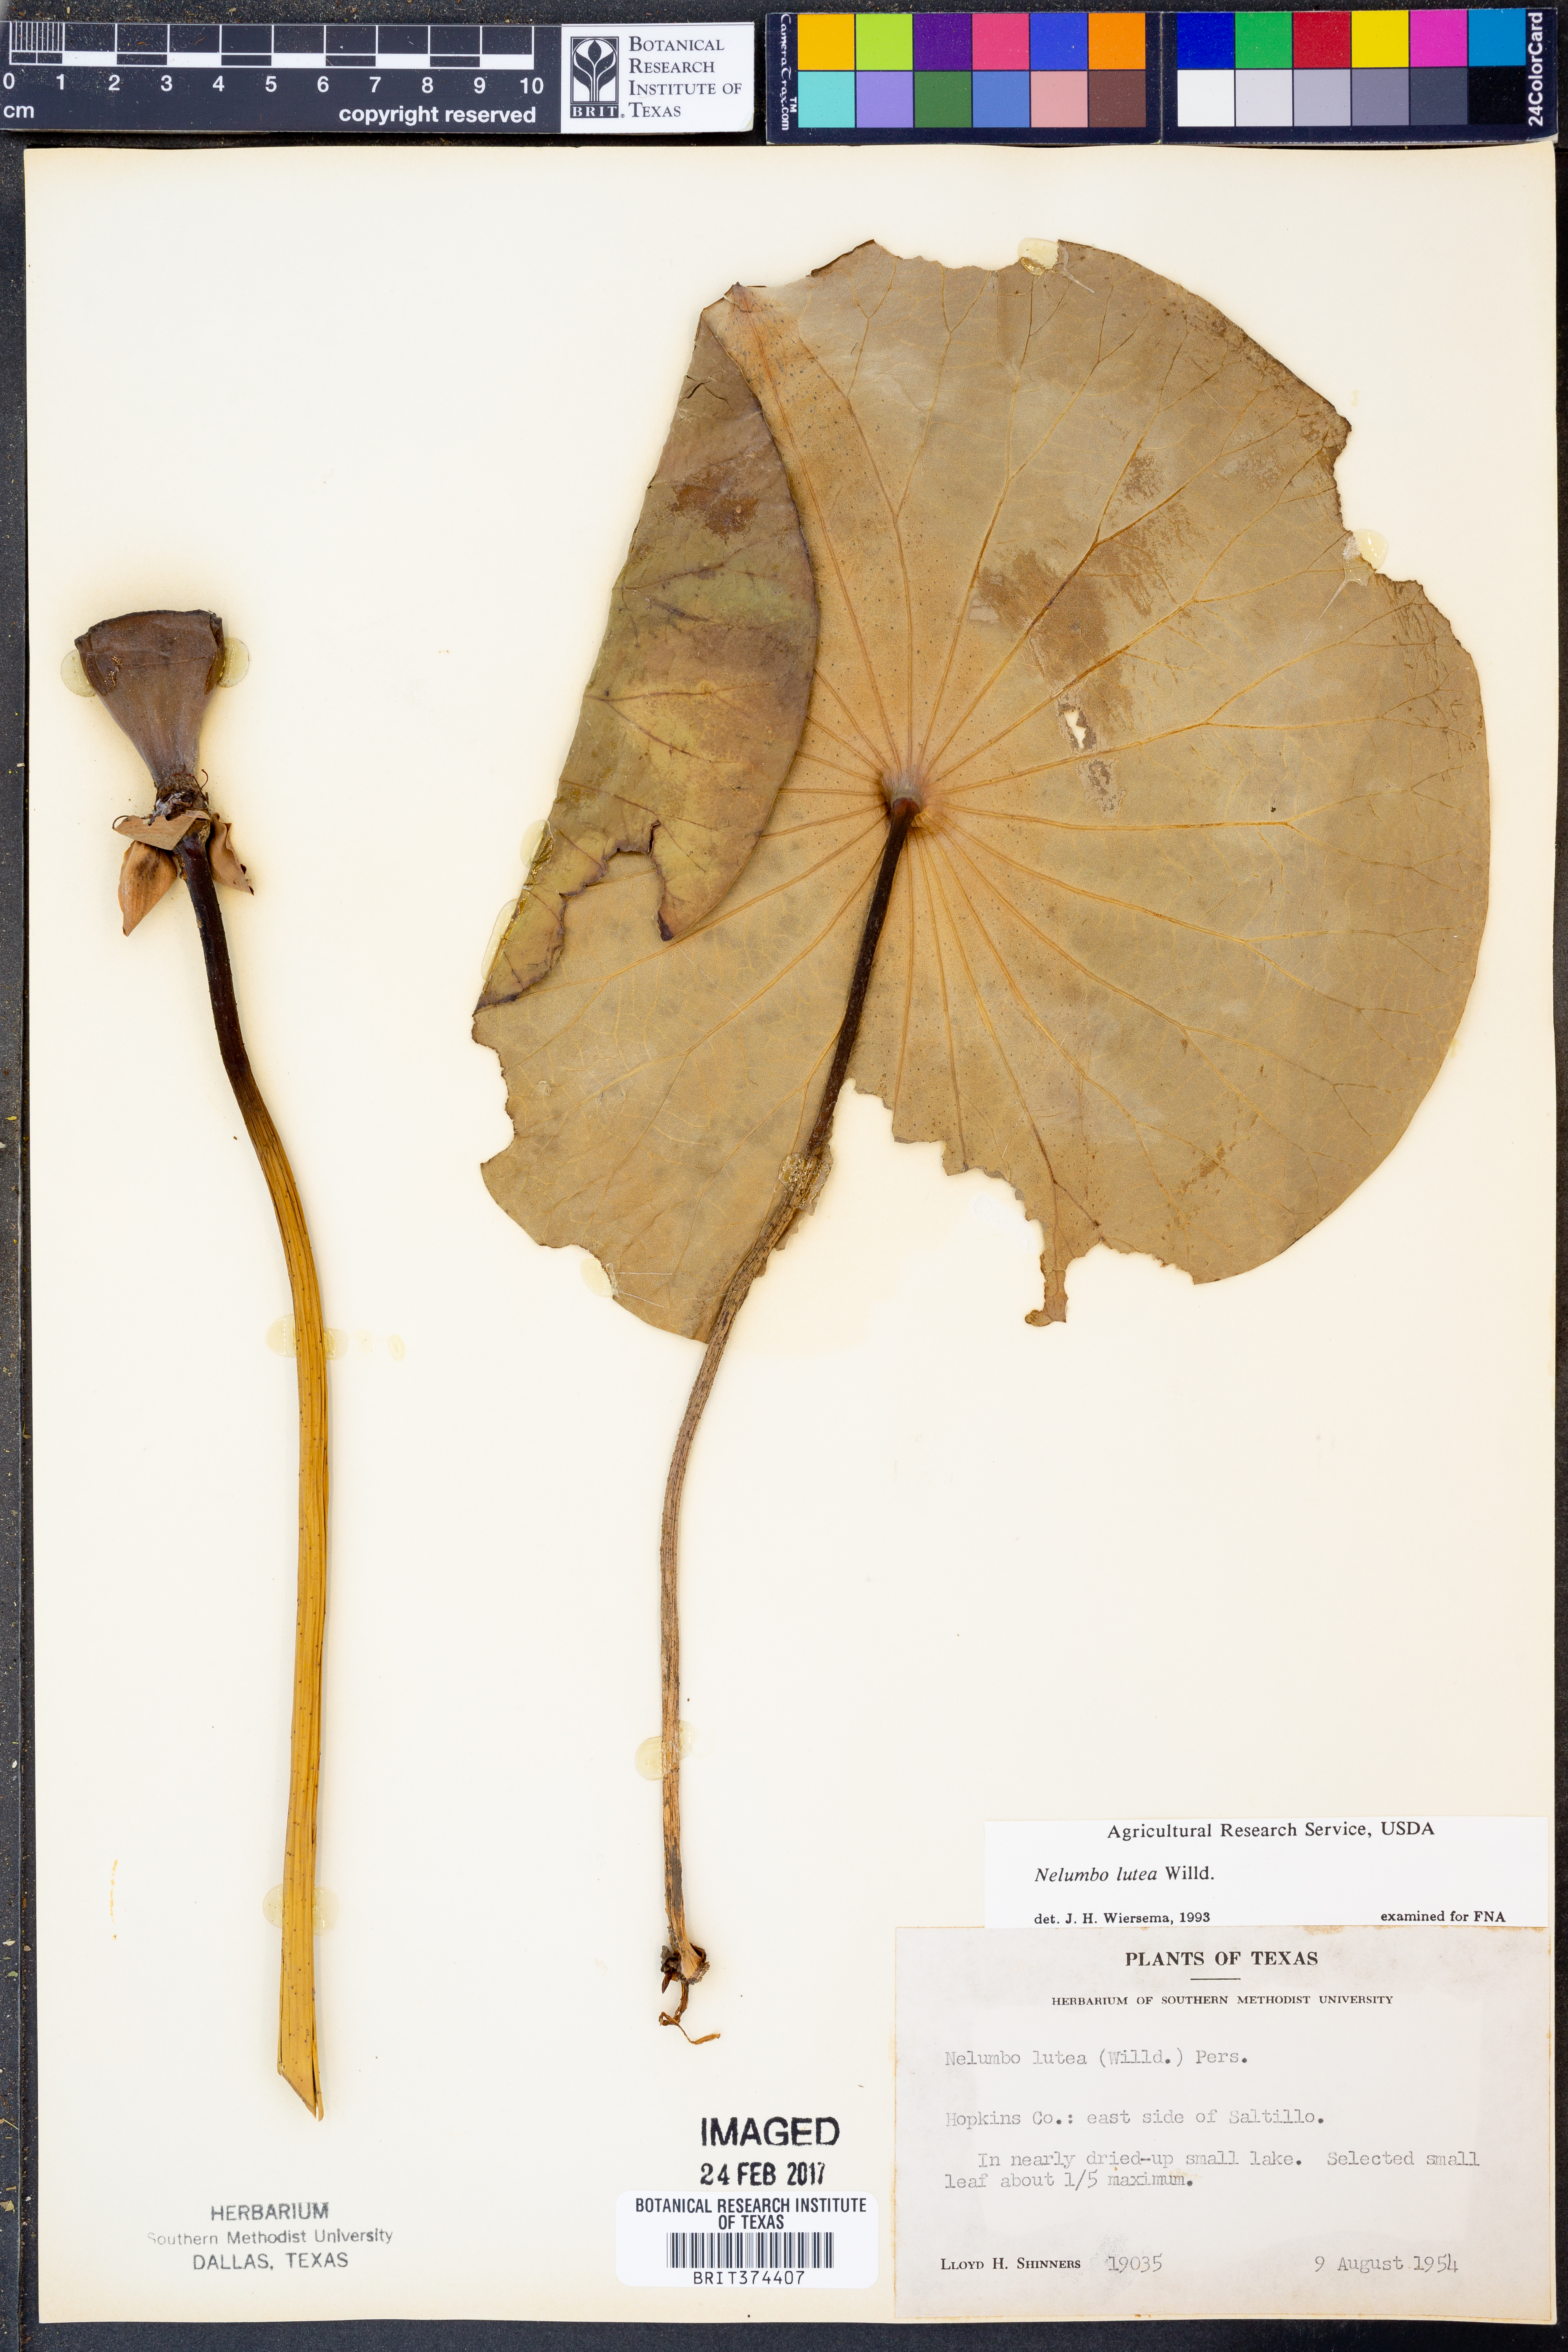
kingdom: Plantae
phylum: Tracheophyta
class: Magnoliopsida
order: Proteales
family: Nelumbonaceae
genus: Nelumbo
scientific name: Nelumbo lutea
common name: American lotus
